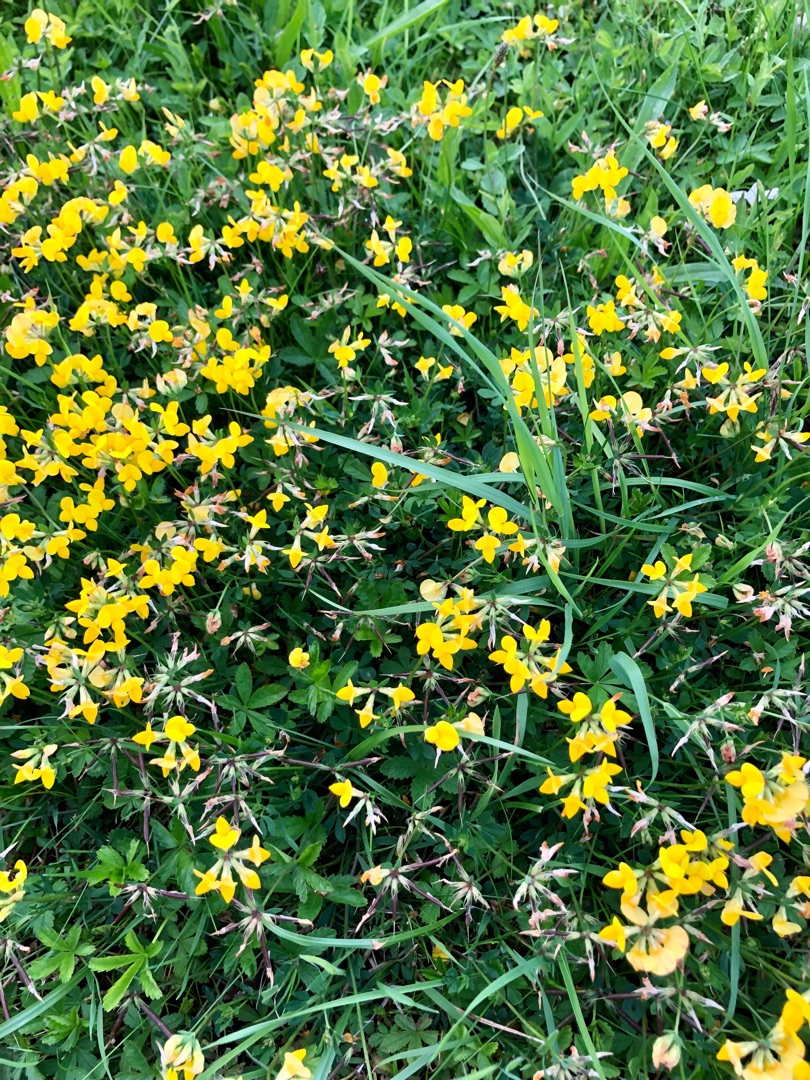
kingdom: Plantae
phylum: Tracheophyta
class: Magnoliopsida
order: Fabales
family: Fabaceae
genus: Lotus
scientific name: Lotus corniculatus
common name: Almindelig kællingetand
